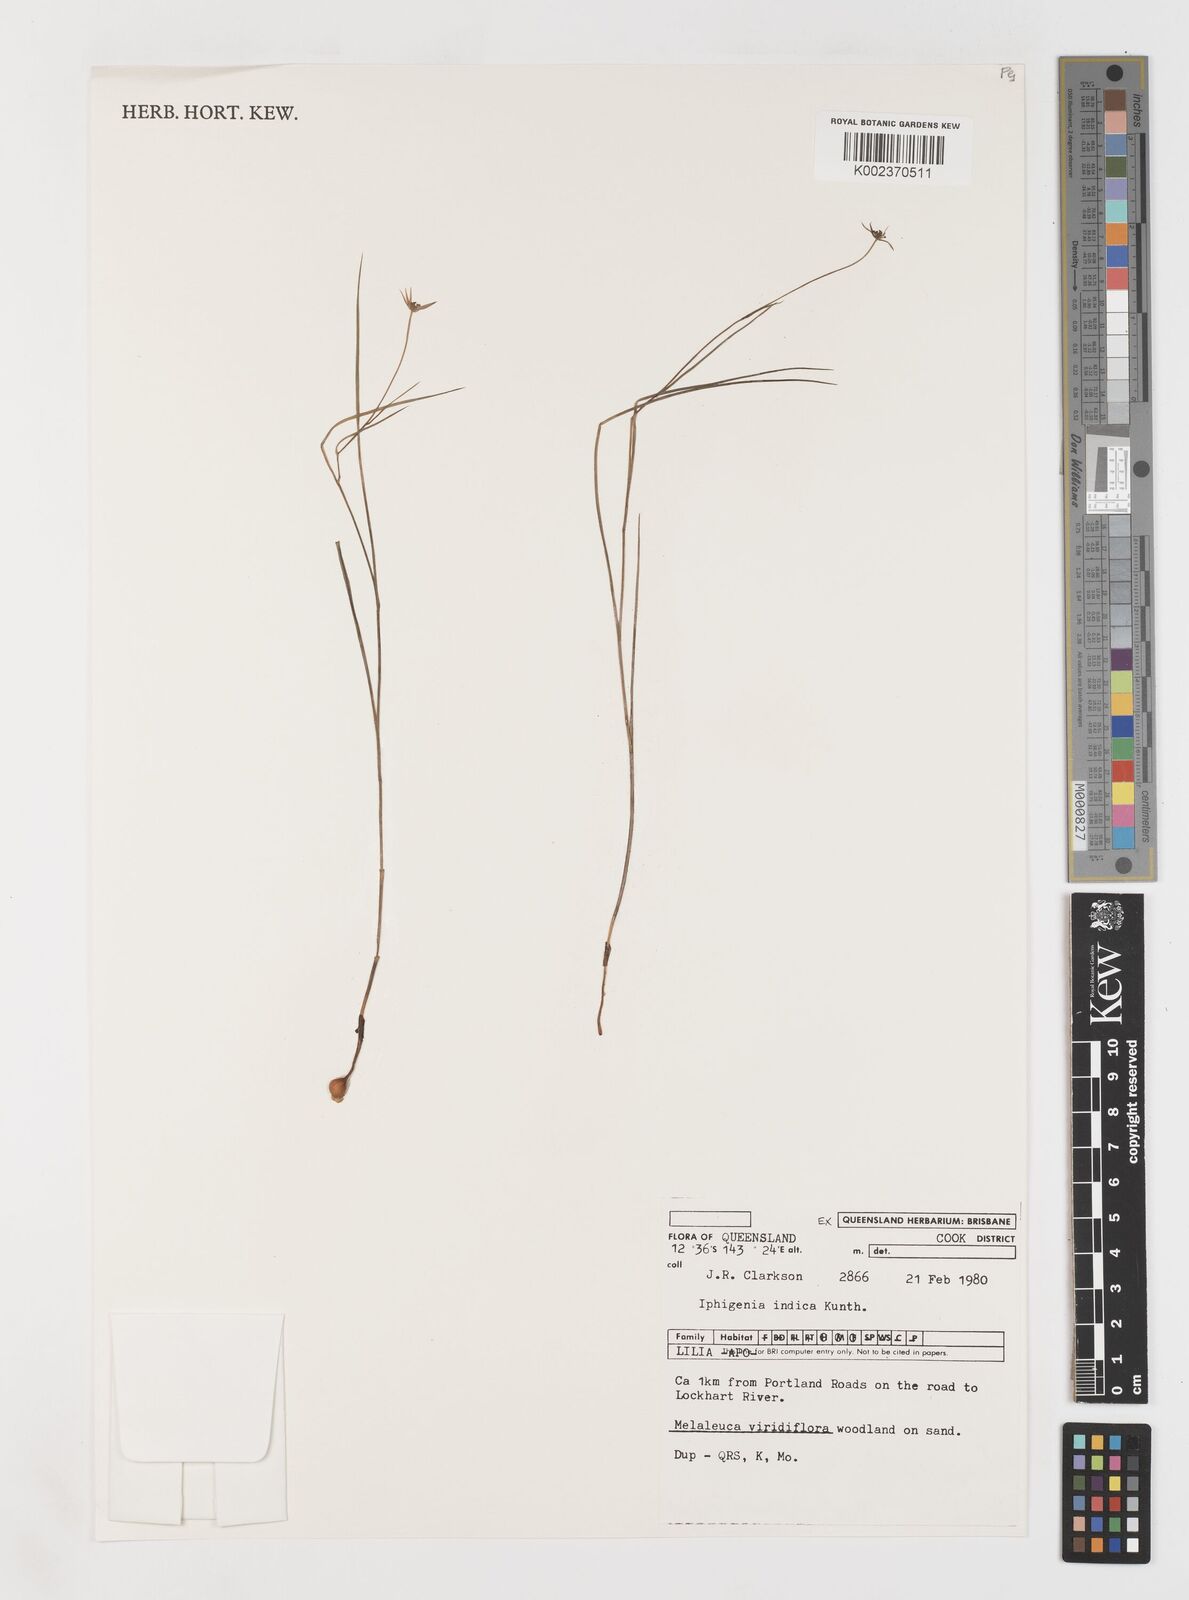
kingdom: Plantae
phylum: Tracheophyta
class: Liliopsida
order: Liliales
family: Colchicaceae
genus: Iphigenia
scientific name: Iphigenia indica
